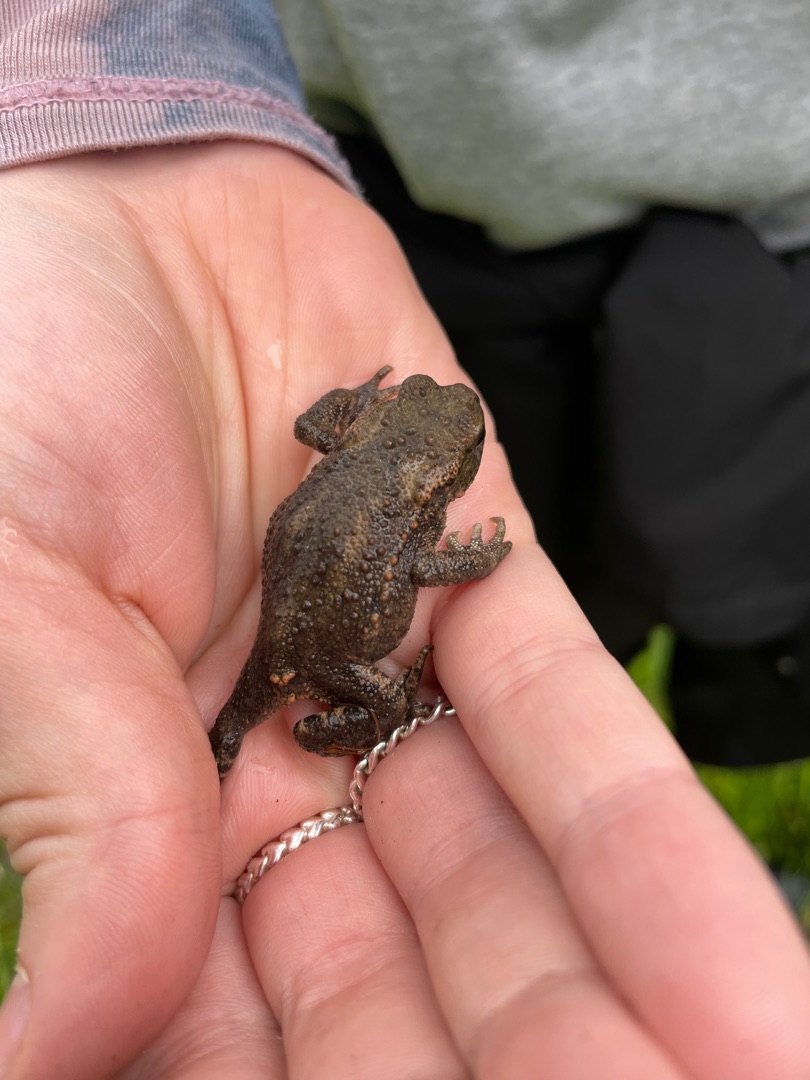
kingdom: Animalia
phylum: Chordata
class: Amphibia
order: Anura
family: Bufonidae
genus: Bufo
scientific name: Bufo bufo
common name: Skrubtudse
